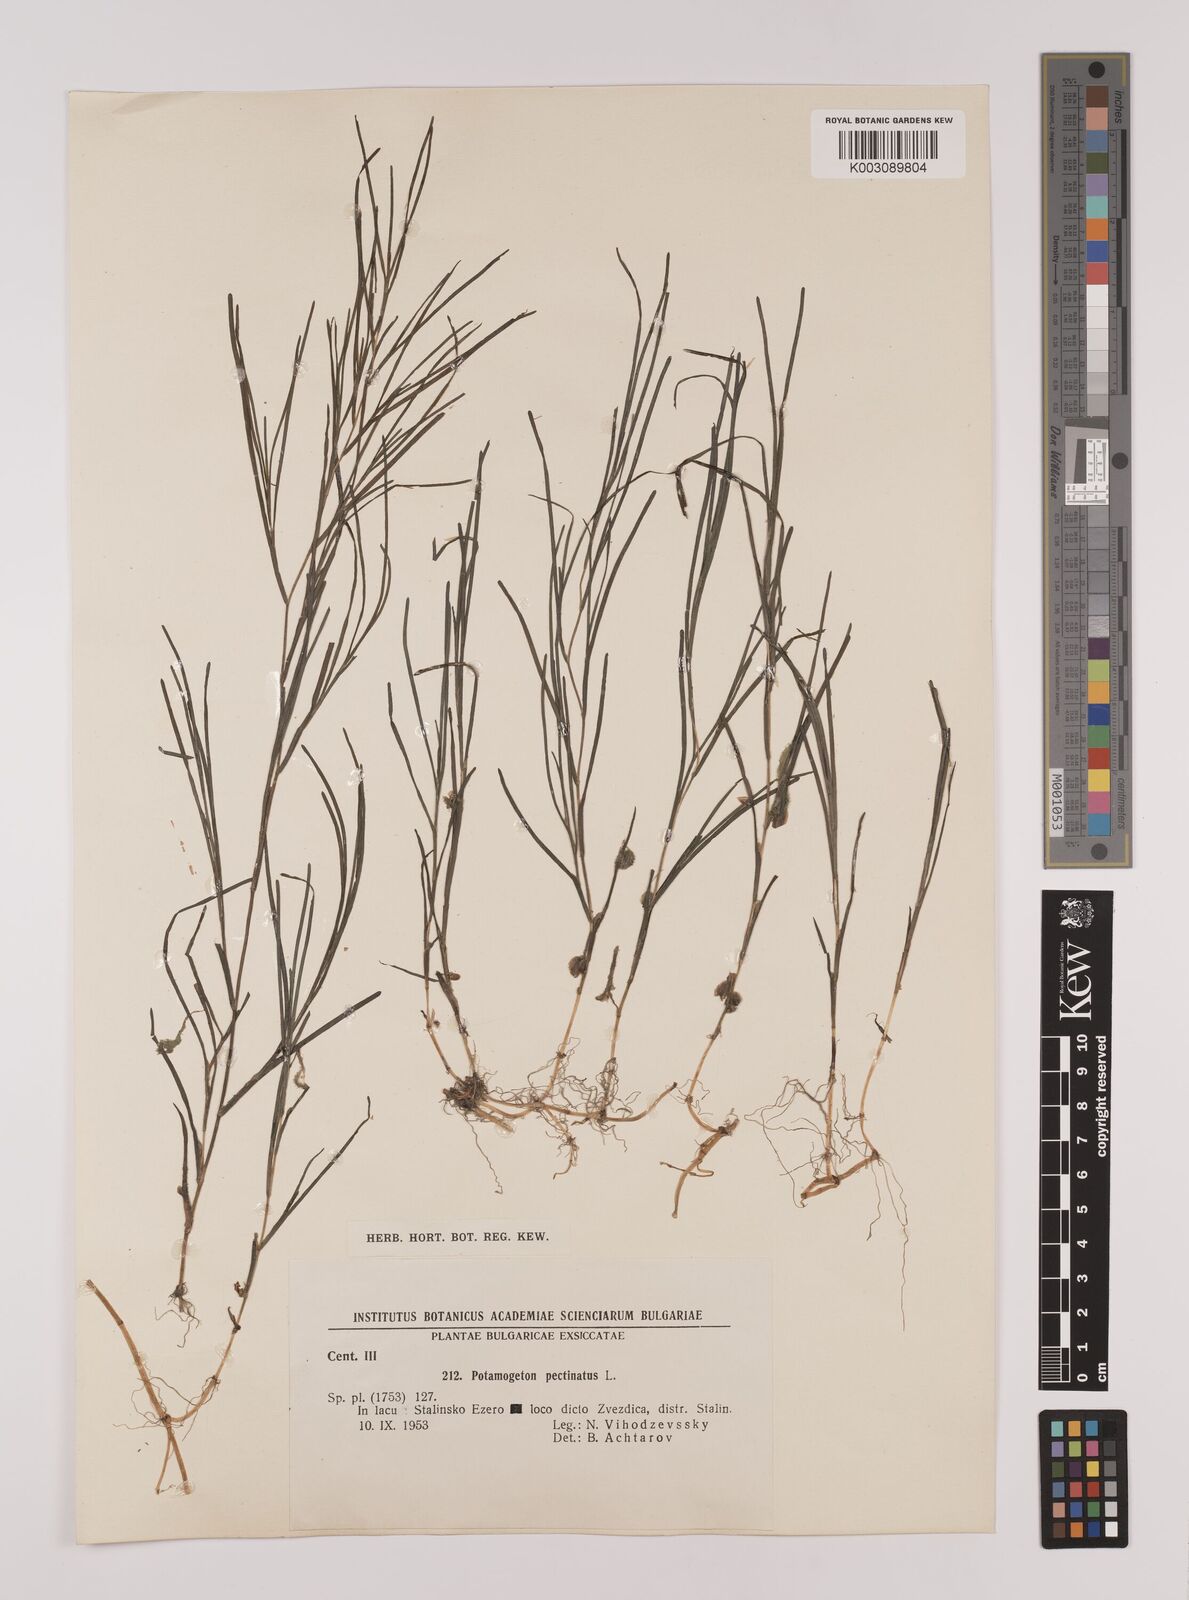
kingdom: Plantae
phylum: Tracheophyta
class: Liliopsida
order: Alismatales
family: Potamogetonaceae
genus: Stuckenia
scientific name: Stuckenia pectinata
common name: Sago pondweed
